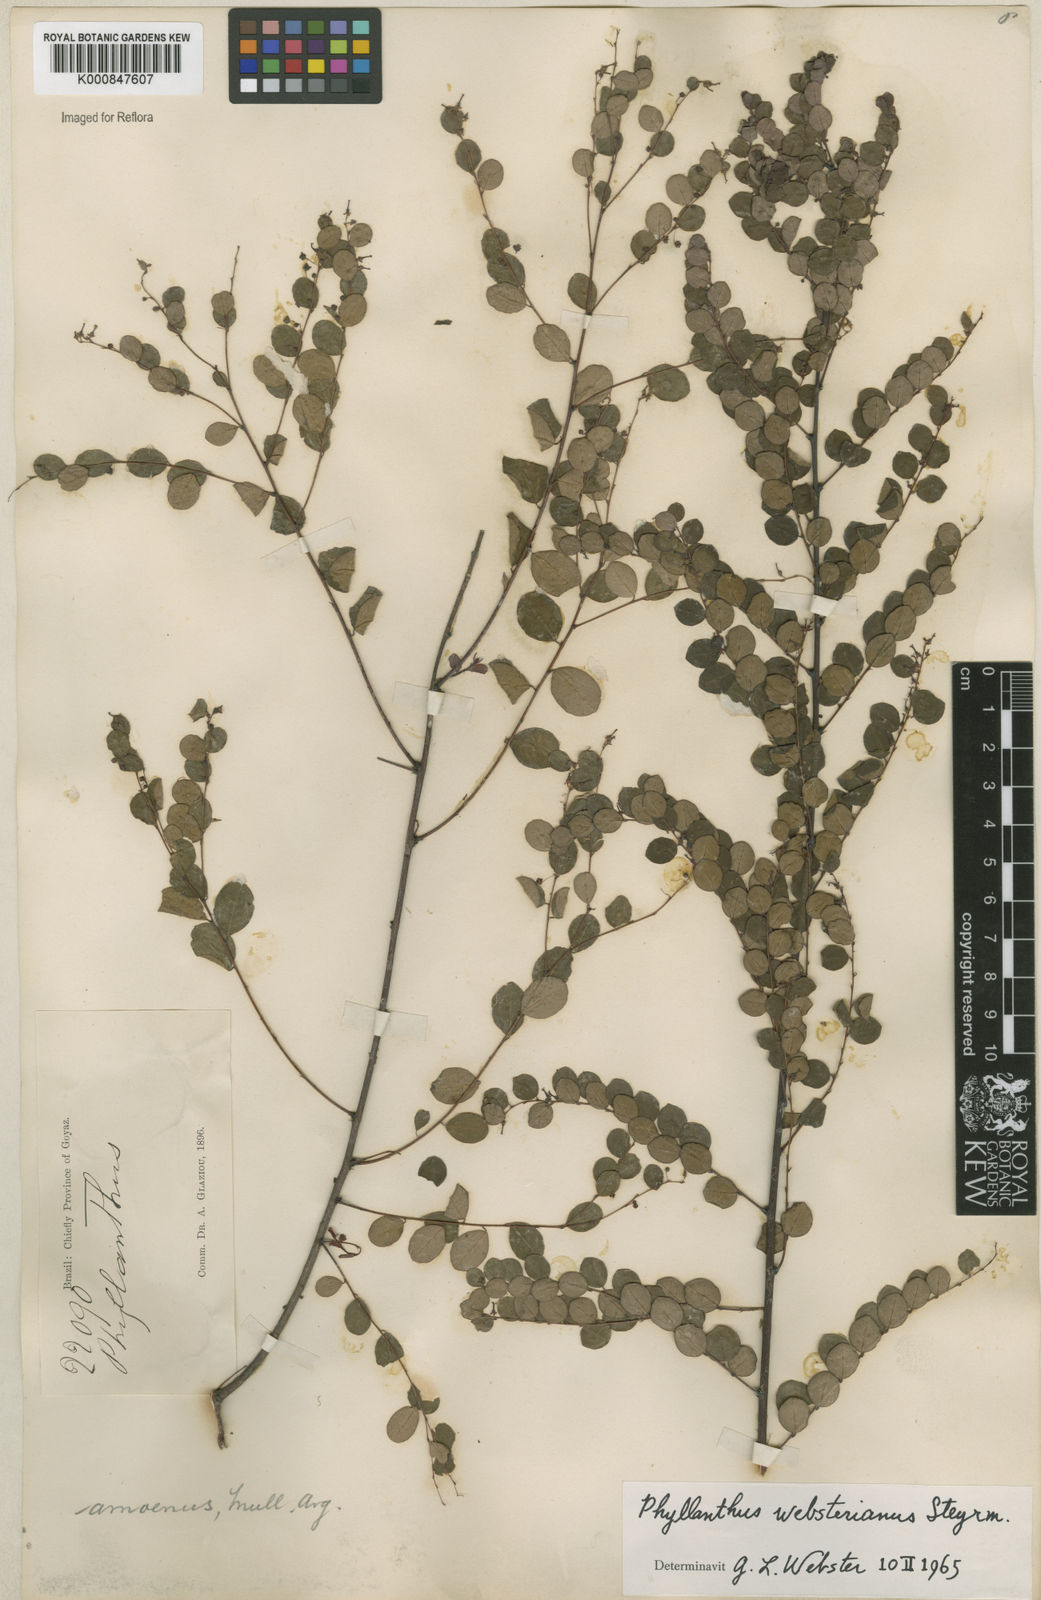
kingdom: Plantae
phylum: Tracheophyta
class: Magnoliopsida
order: Malpighiales
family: Phyllanthaceae
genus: Phyllanthus
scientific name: Phyllanthus websterianus
